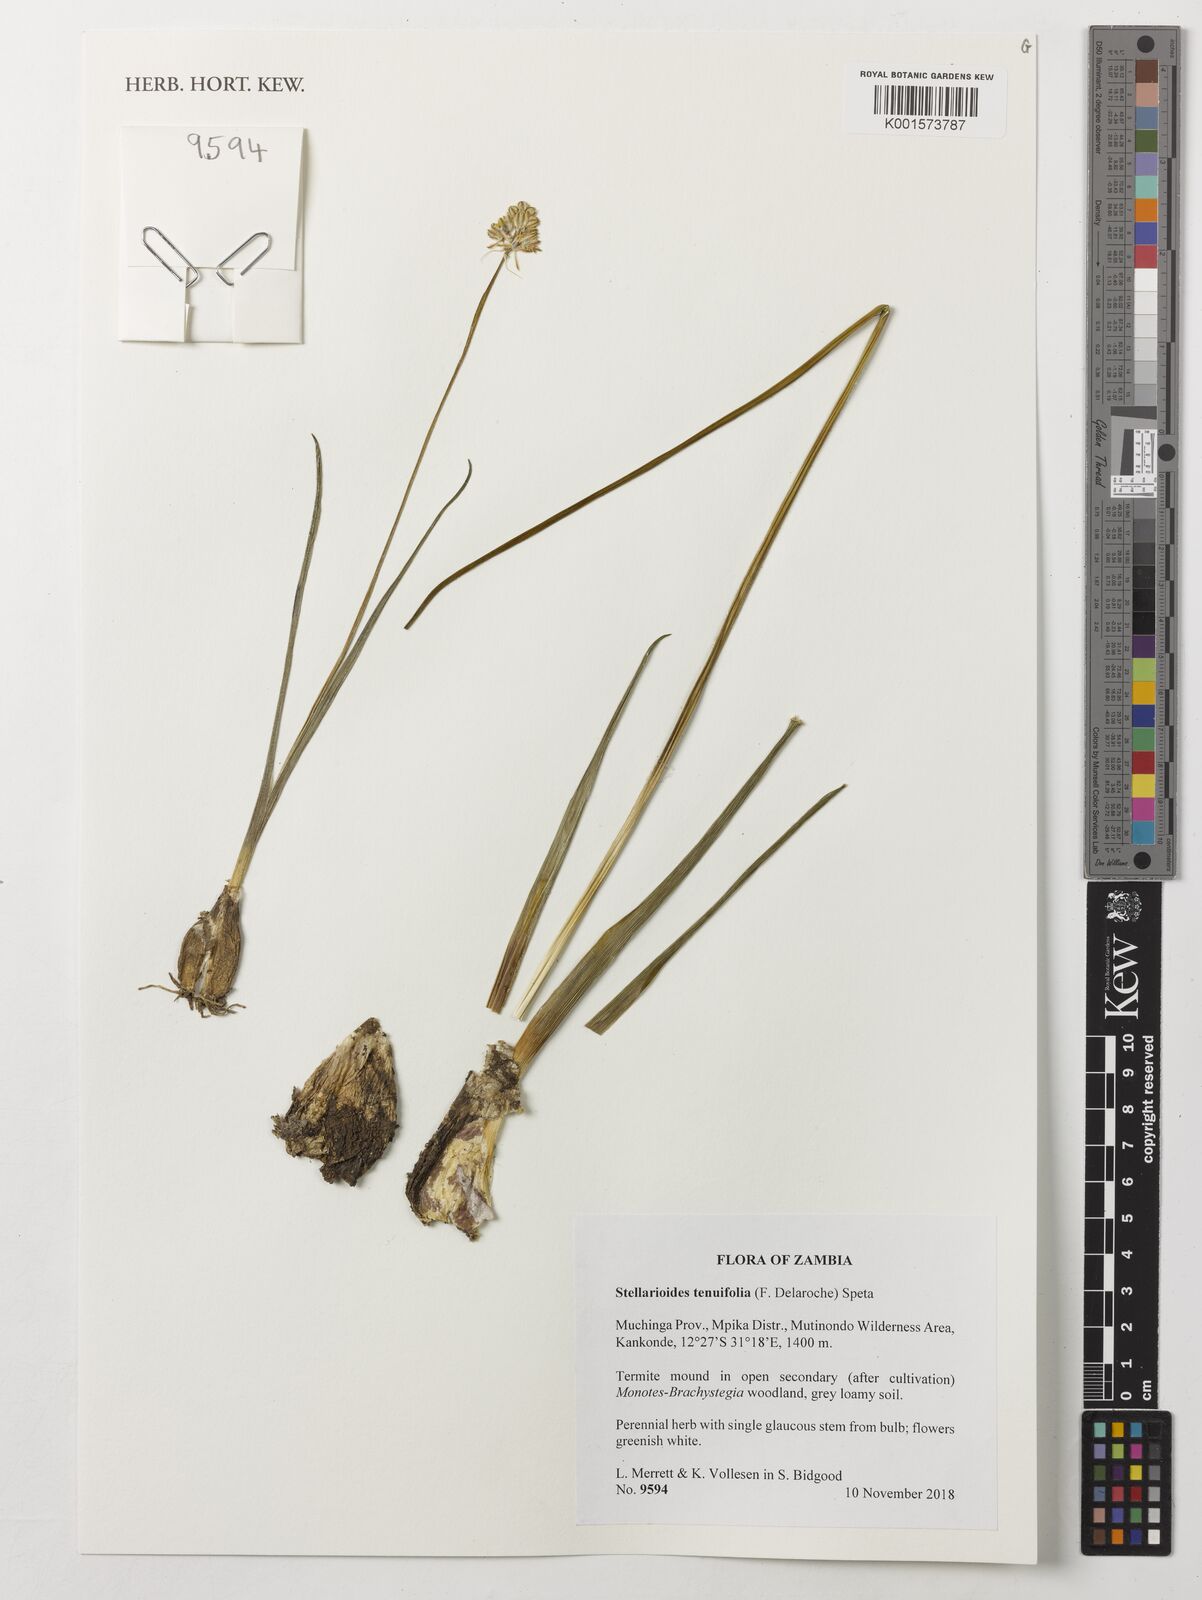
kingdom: Plantae
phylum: Tracheophyta
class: Liliopsida
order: Asparagales
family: Asparagaceae
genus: Albuca
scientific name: Albuca virens
